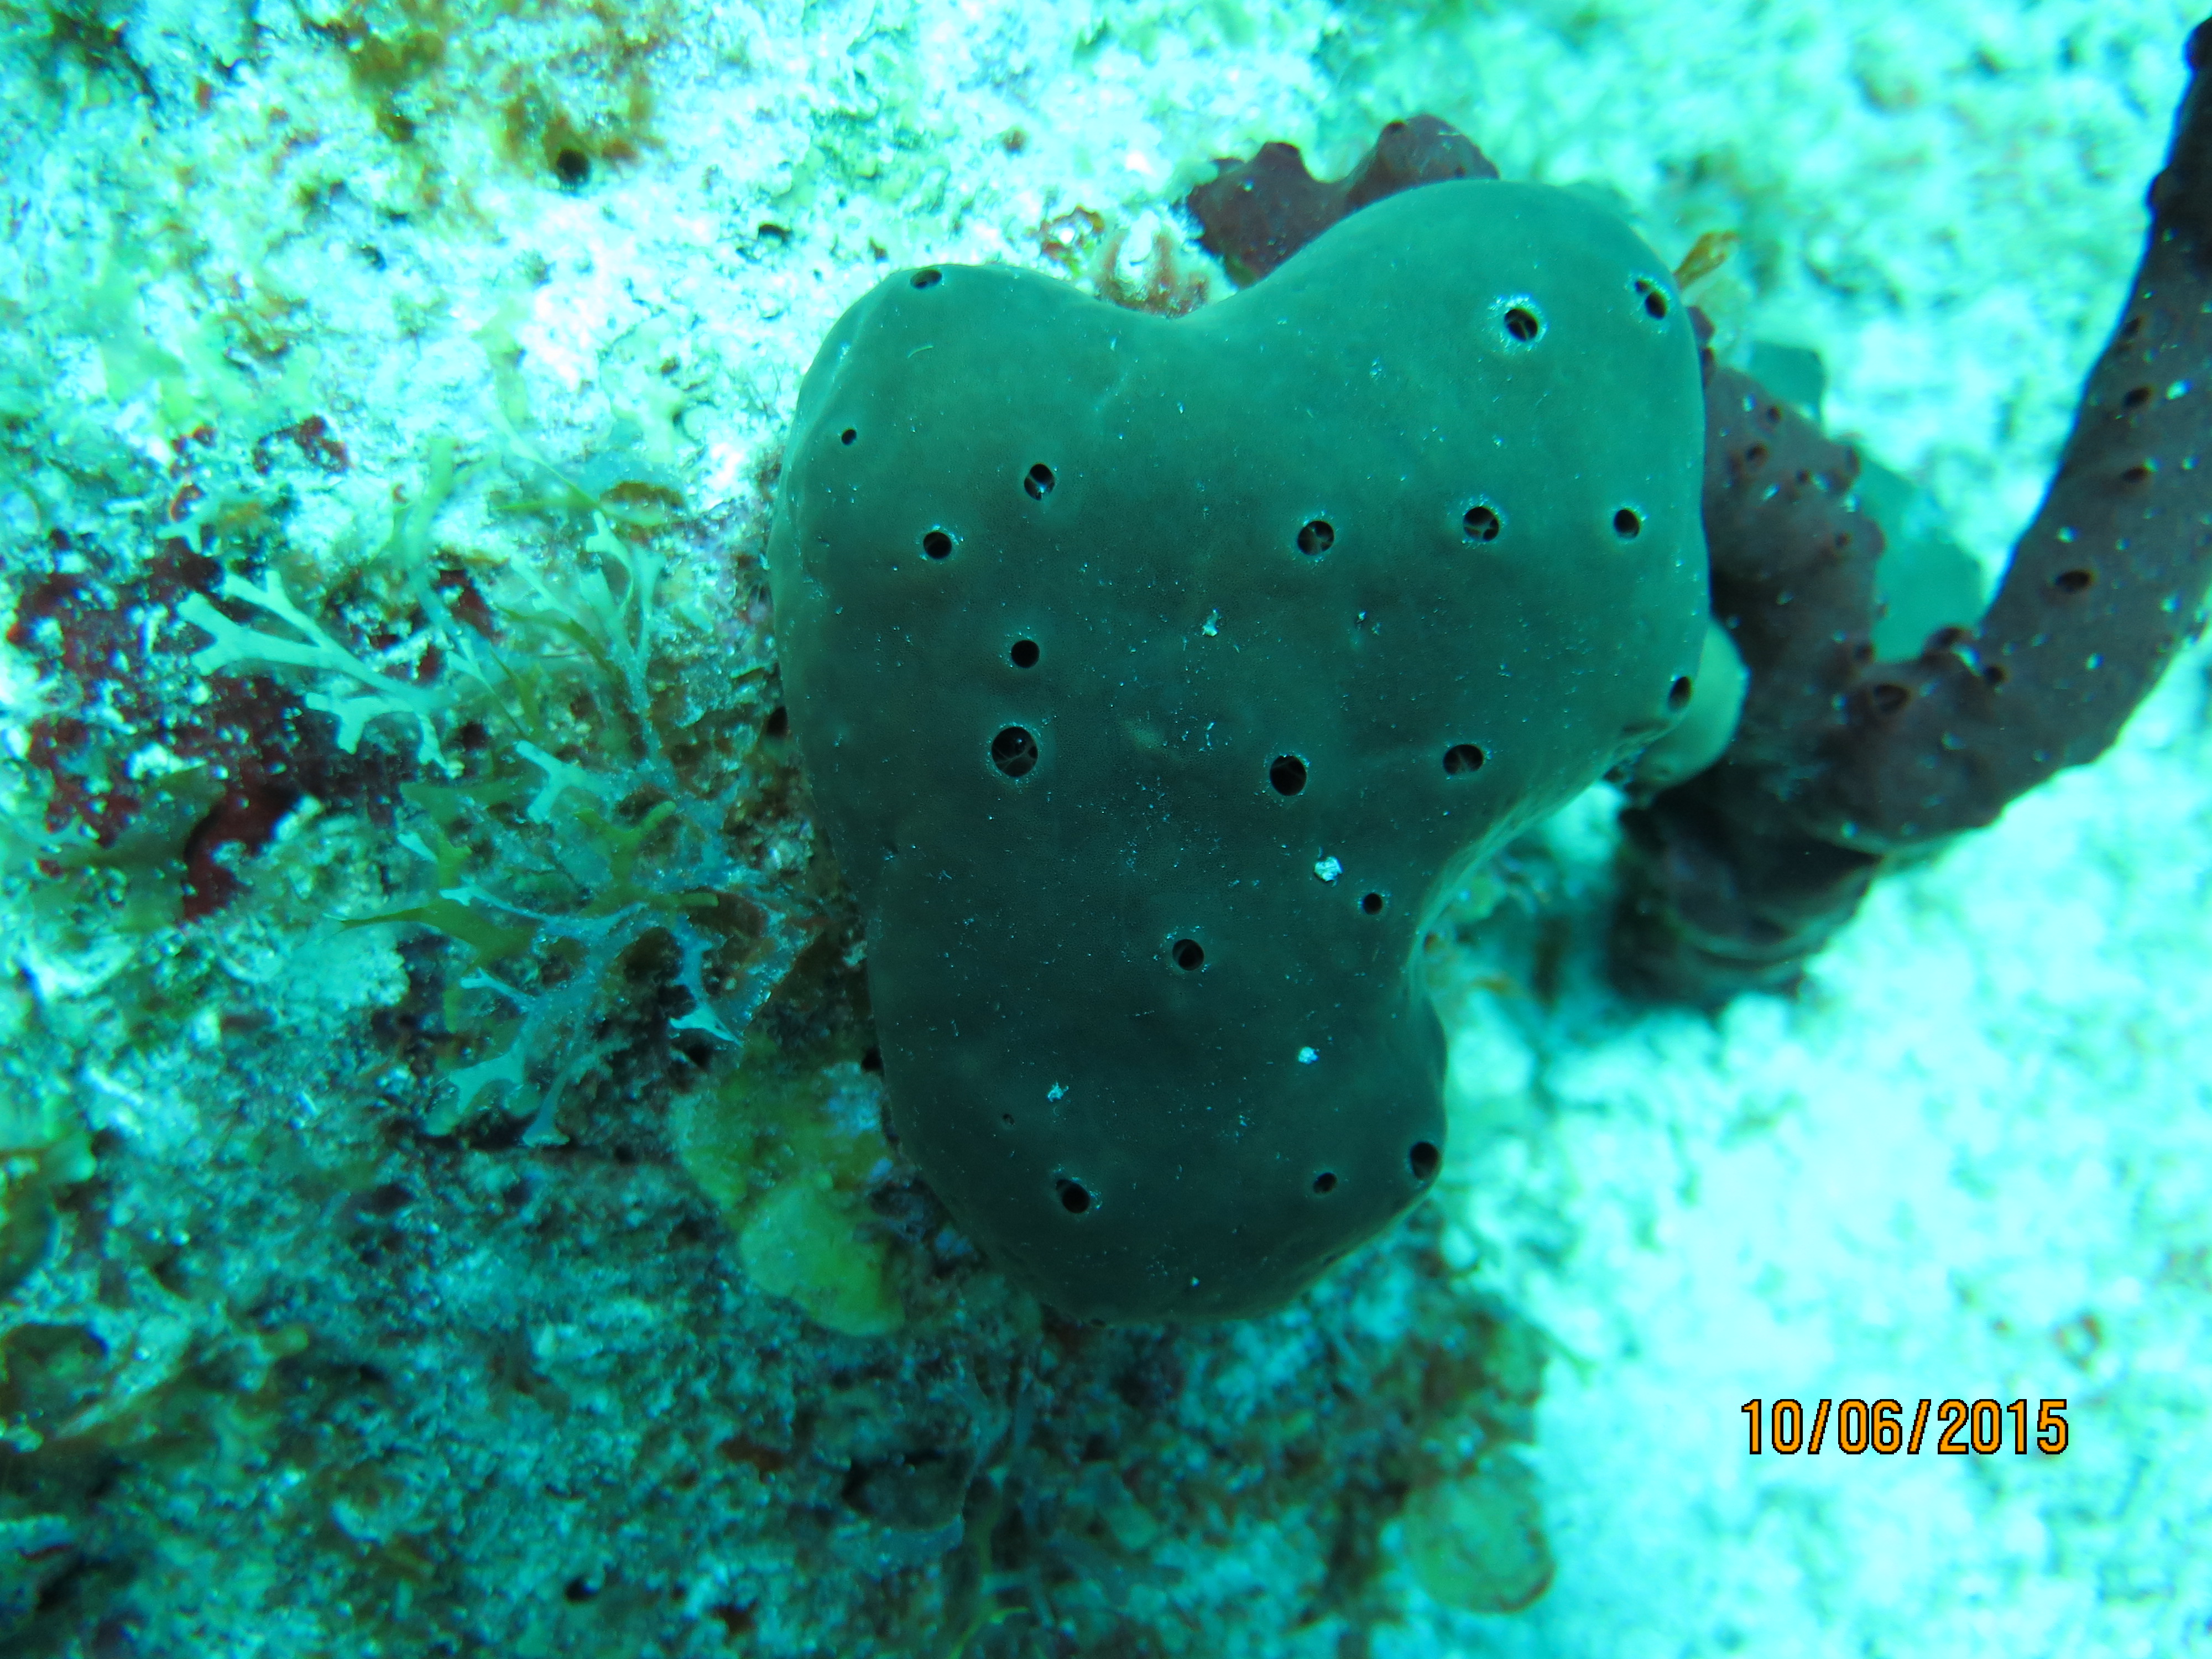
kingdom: Animalia
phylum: Porifera
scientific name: Porifera
